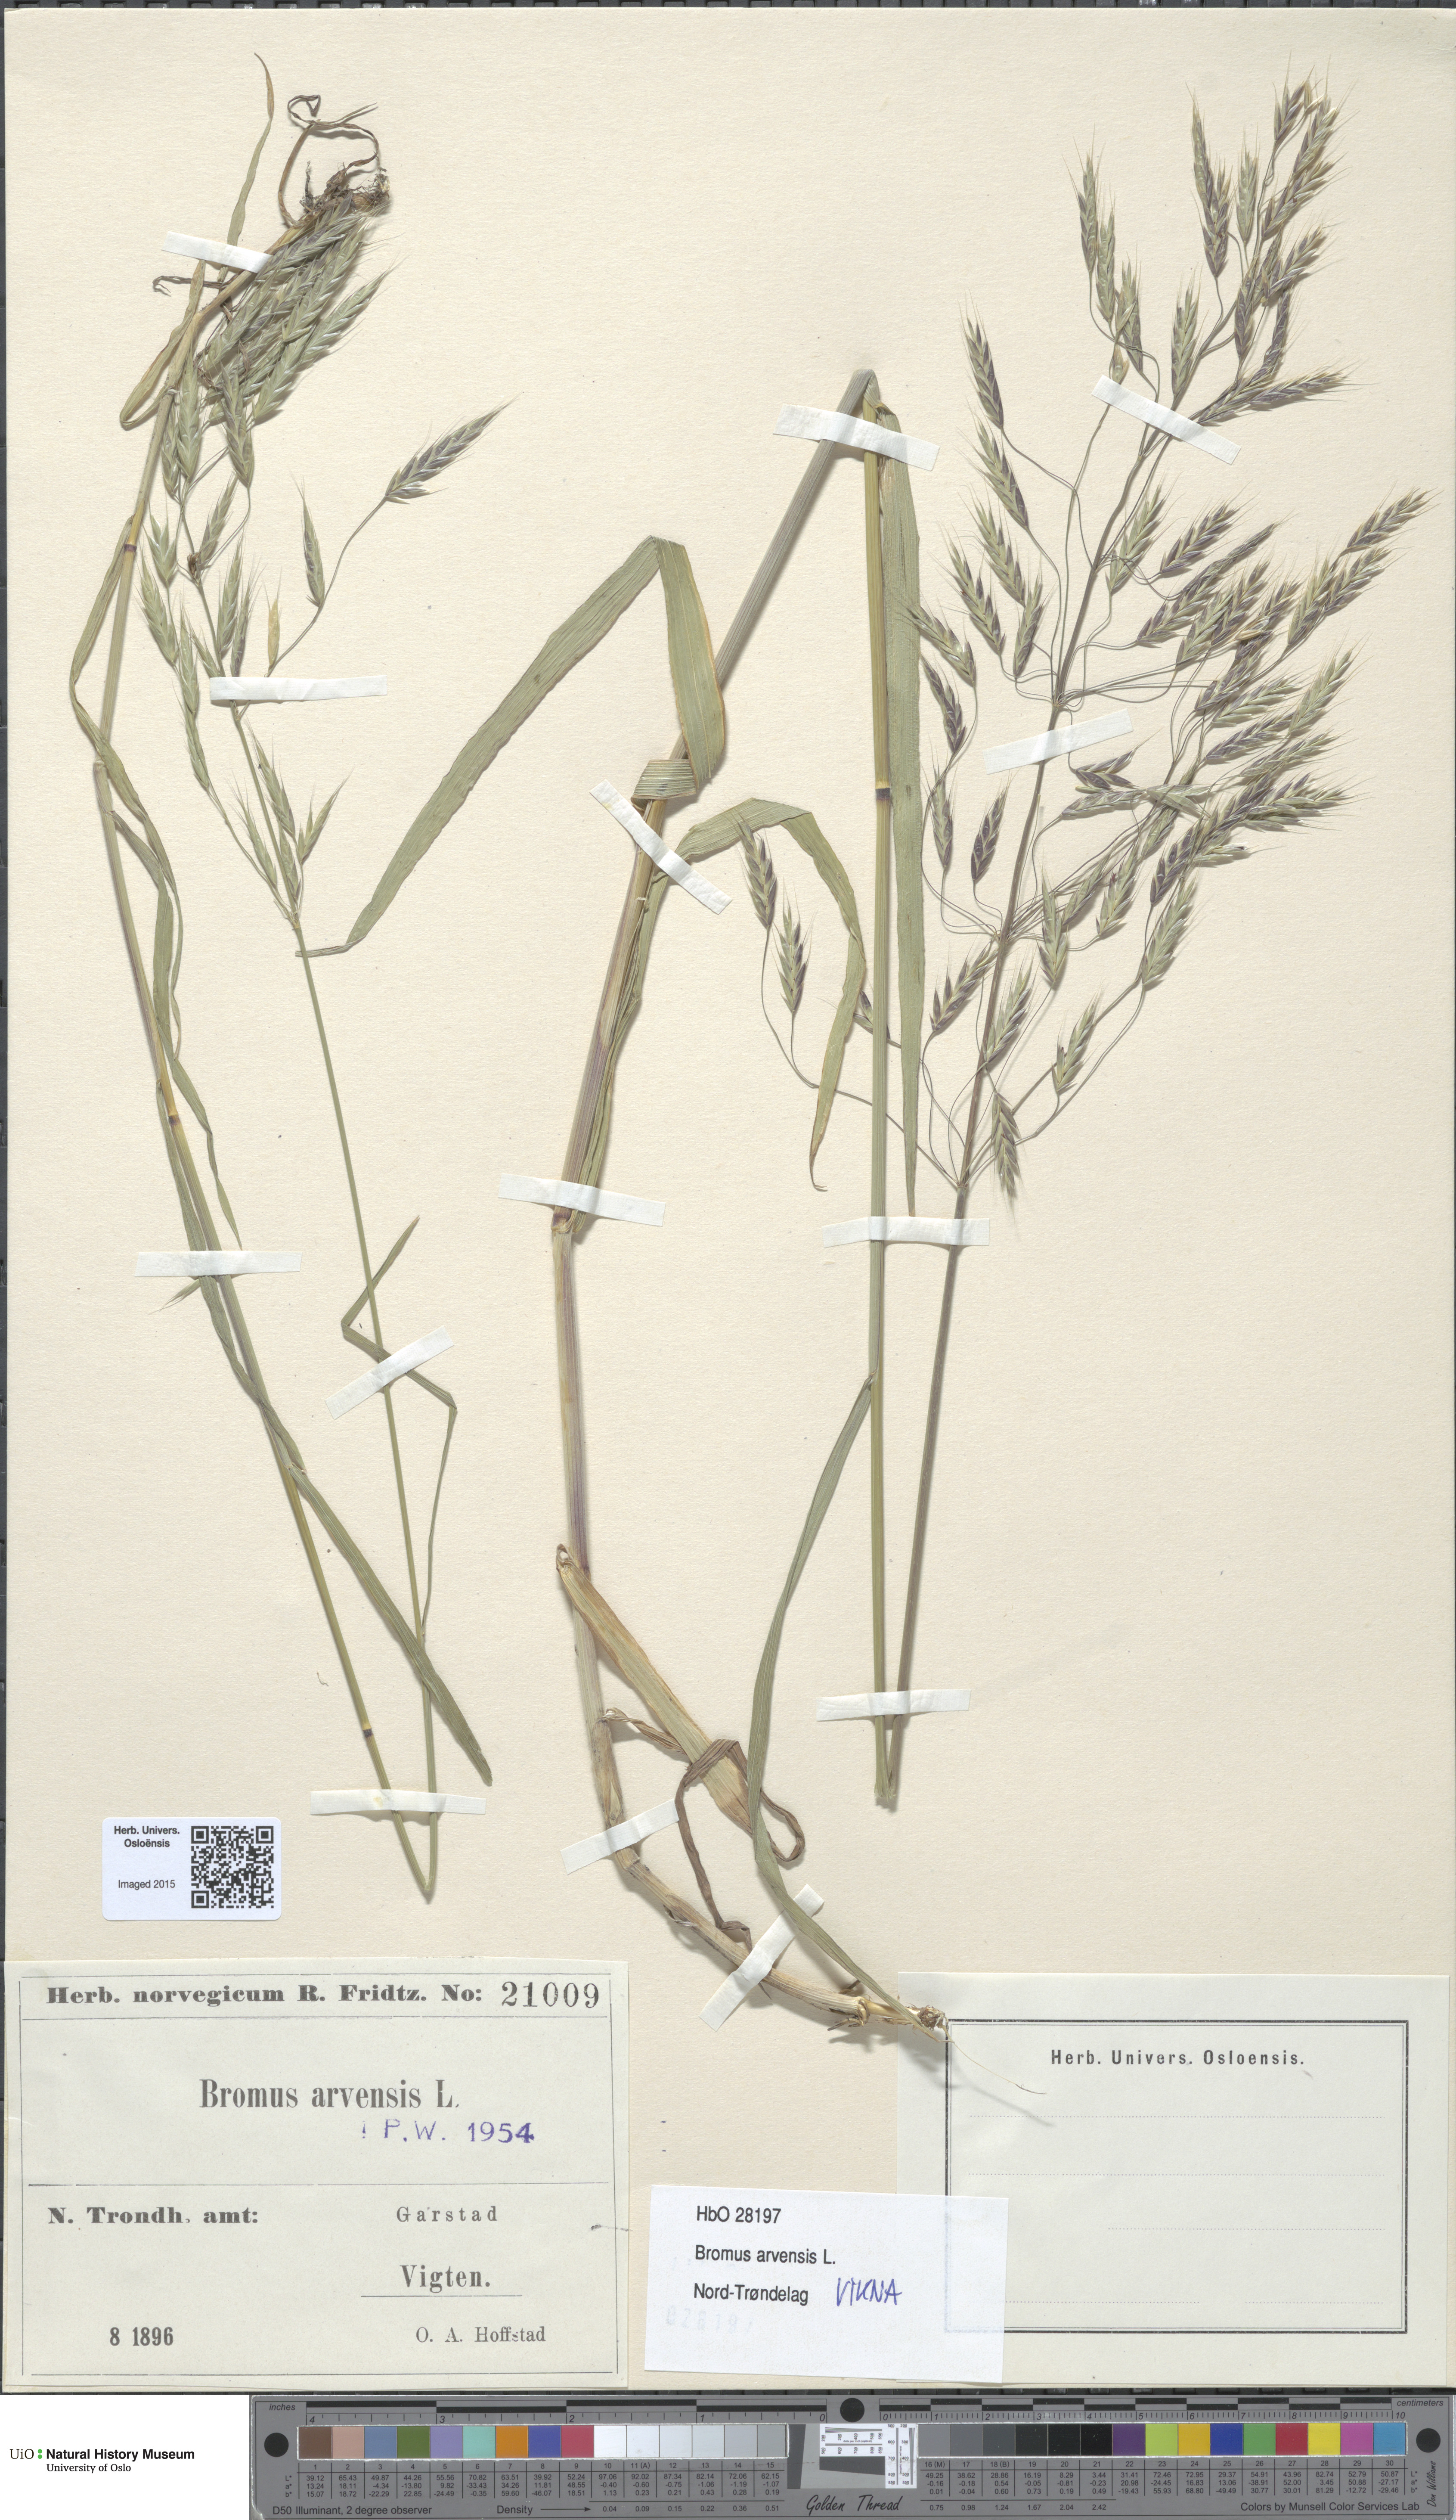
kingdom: Plantae
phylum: Tracheophyta
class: Liliopsida
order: Poales
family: Poaceae
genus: Bromus
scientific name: Bromus arvensis
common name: Field brome
